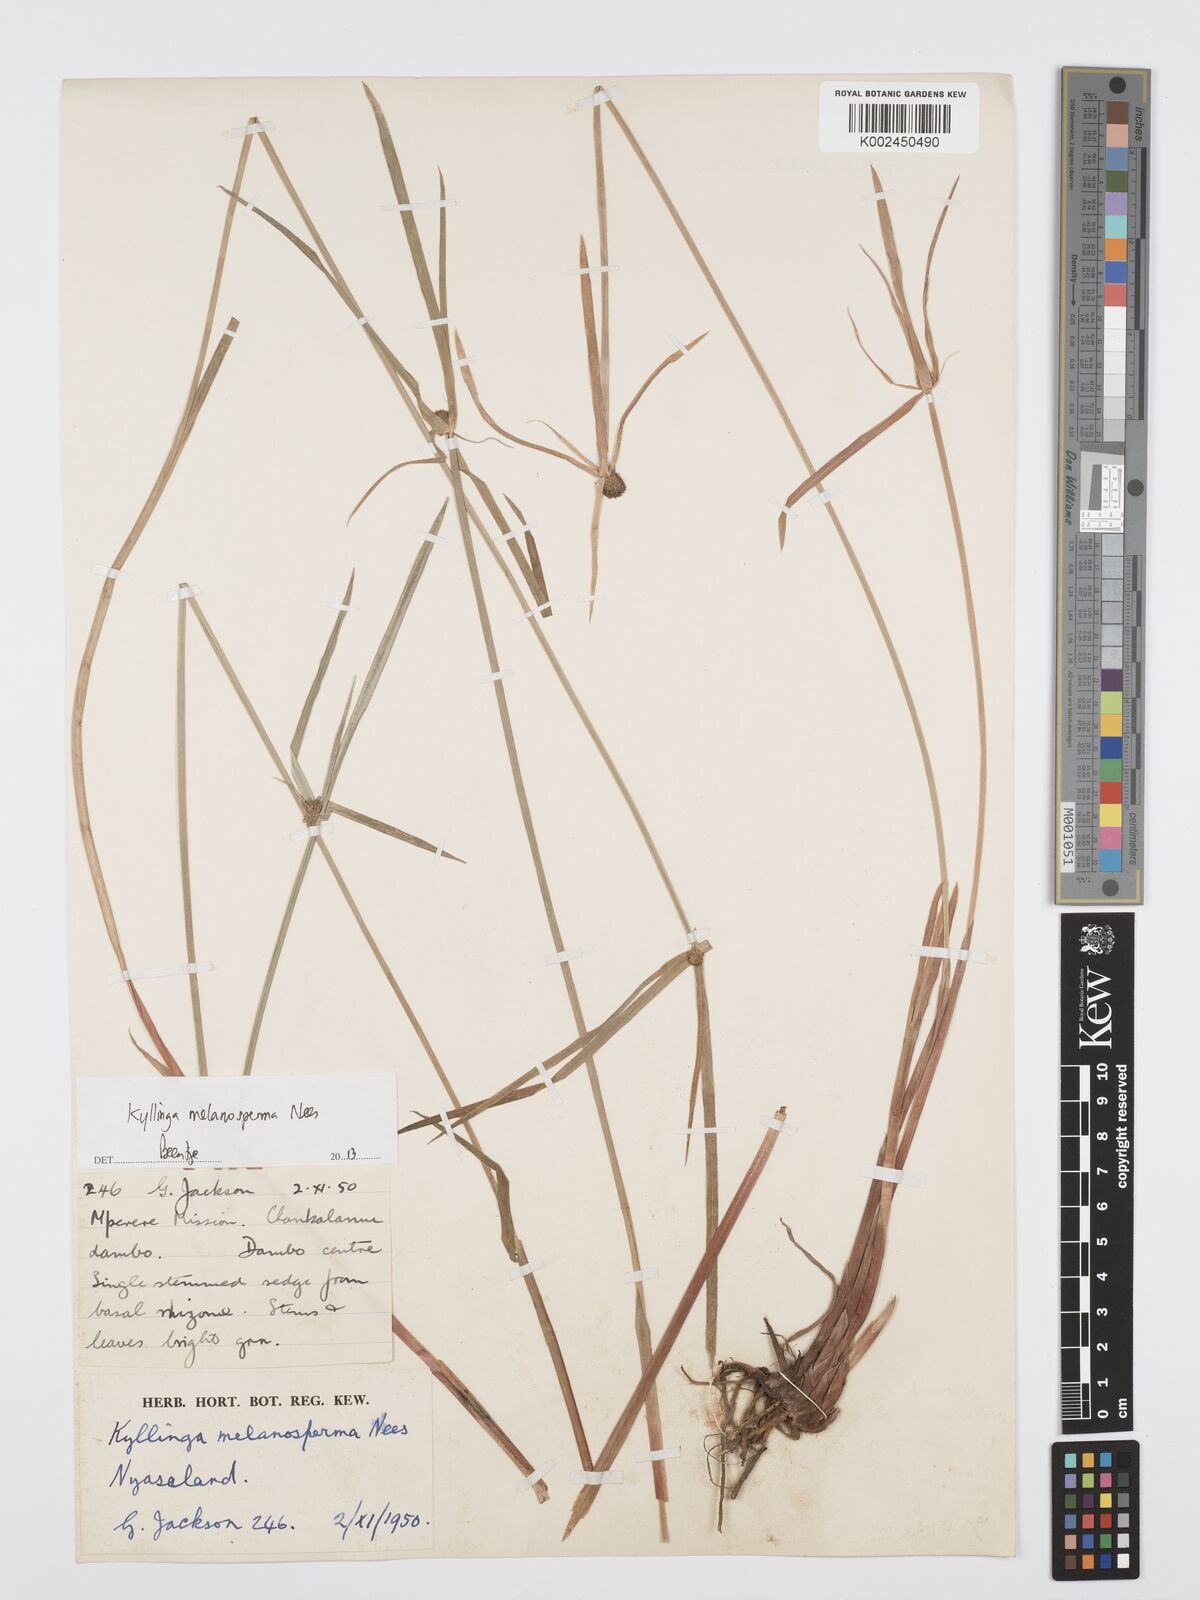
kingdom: Plantae
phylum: Tracheophyta
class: Liliopsida
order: Poales
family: Cyperaceae
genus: Cyperus
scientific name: Cyperus melanospermus
